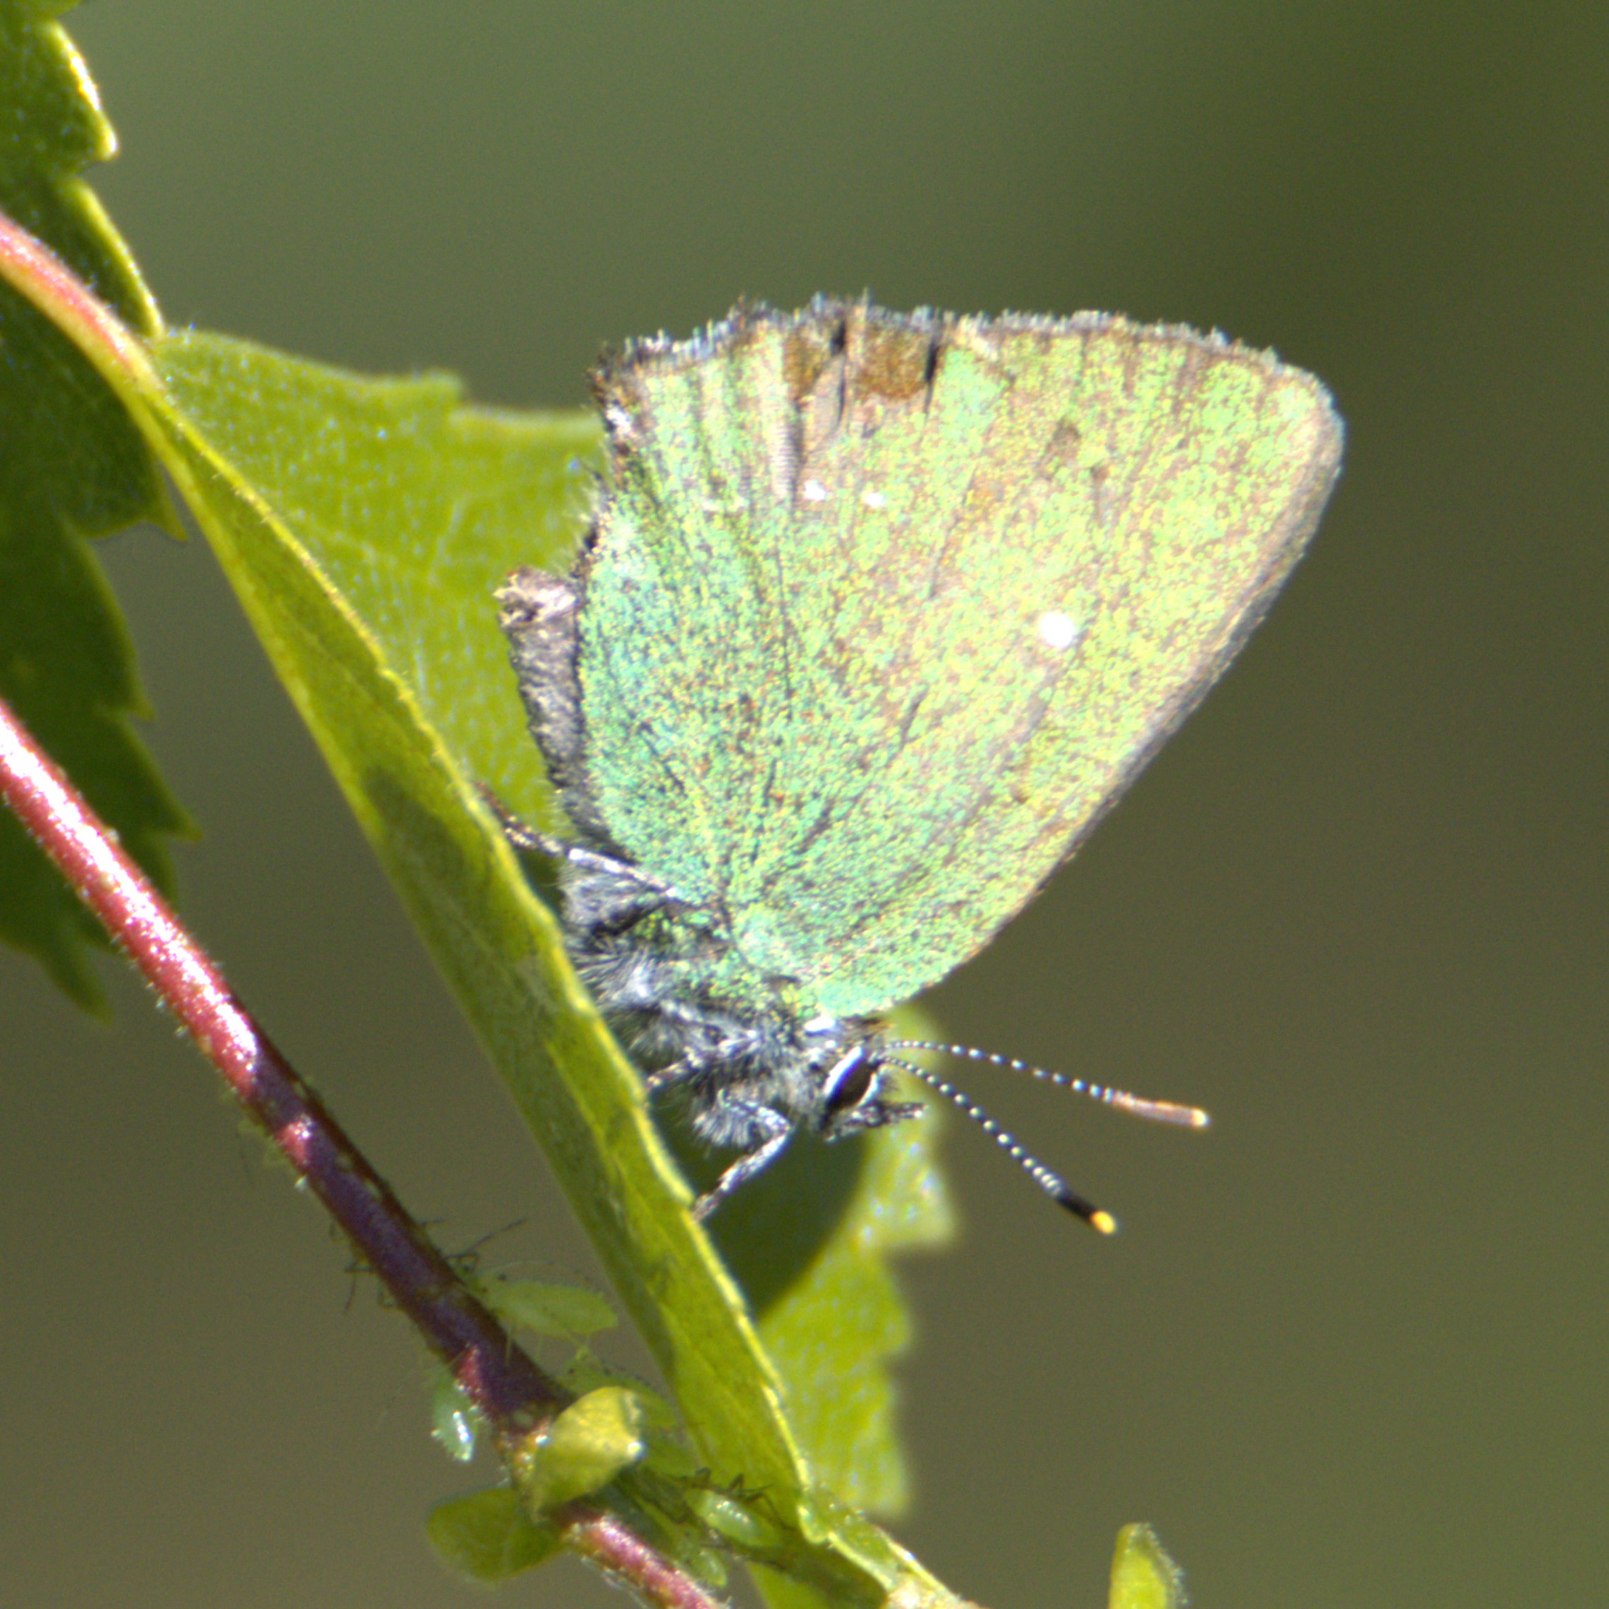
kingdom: Animalia
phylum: Arthropoda
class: Insecta
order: Lepidoptera
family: Lycaenidae
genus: Callophrys
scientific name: Callophrys rubi
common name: Grøn busksommerfugl
